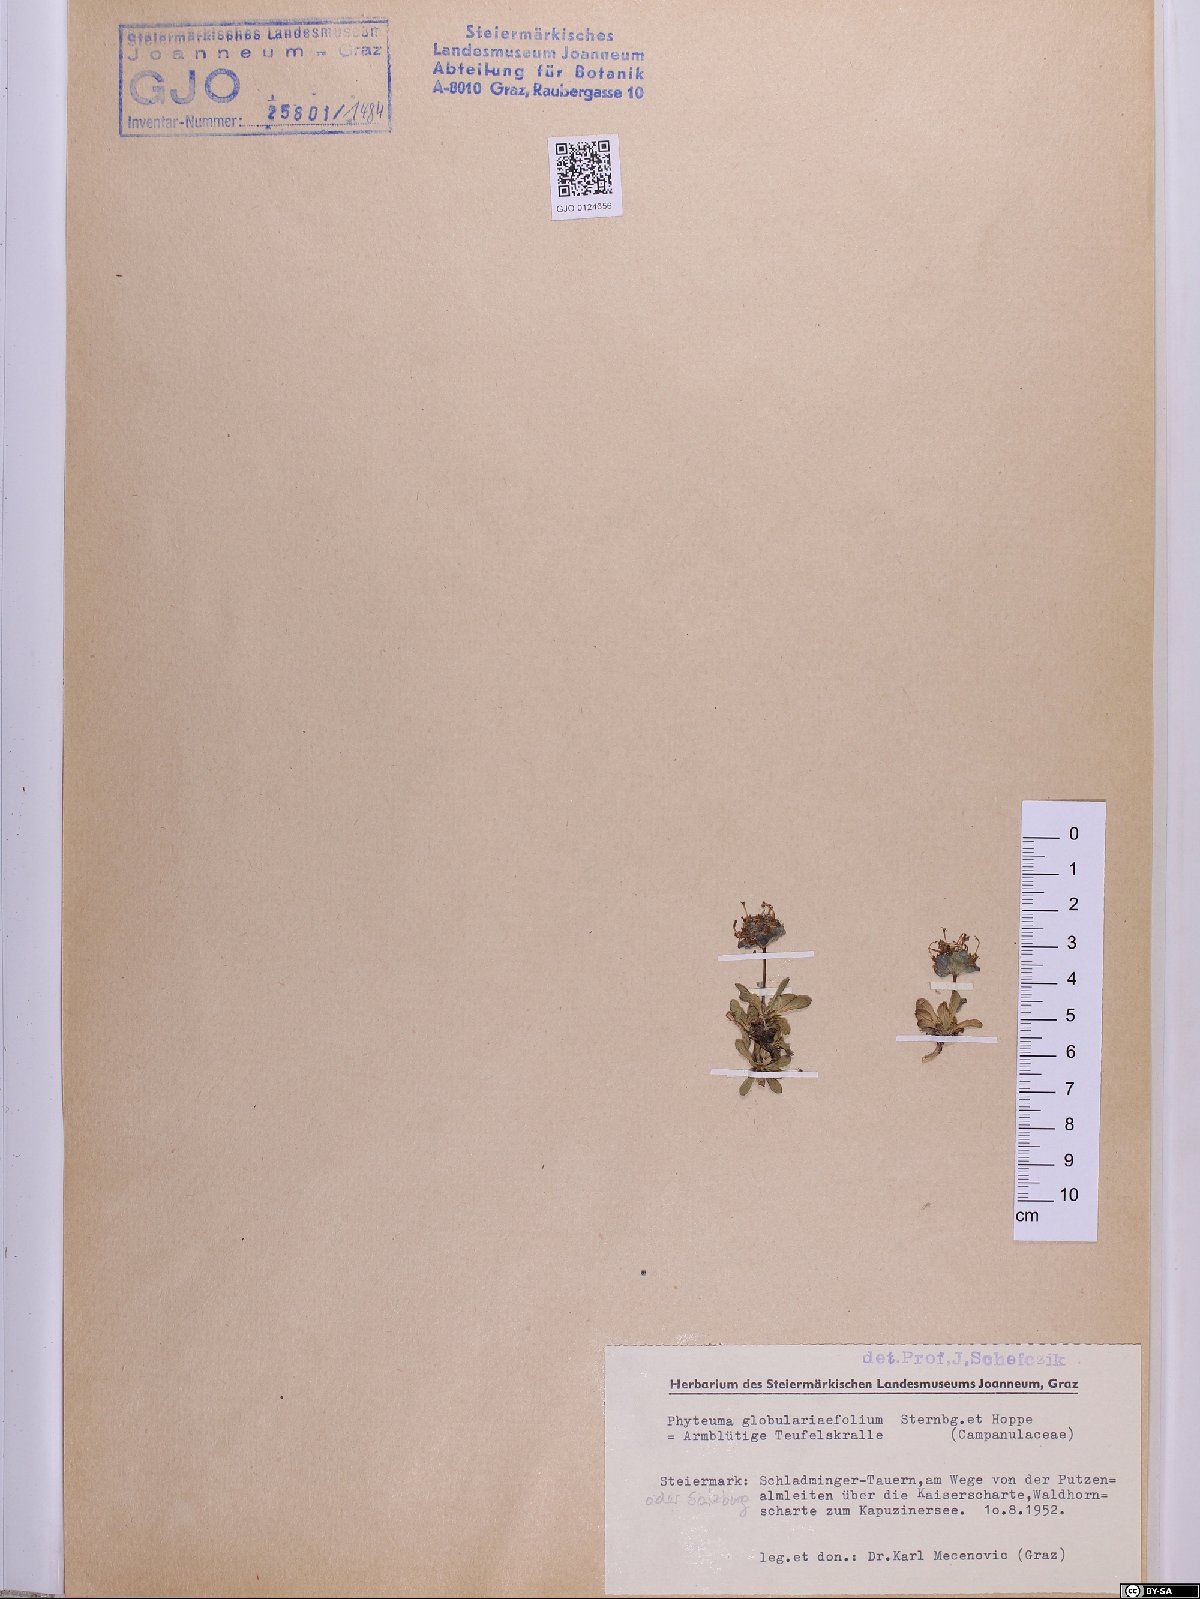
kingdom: Plantae
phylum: Tracheophyta
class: Magnoliopsida
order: Asterales
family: Campanulaceae
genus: Phyteuma
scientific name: Phyteuma globulariifolium
